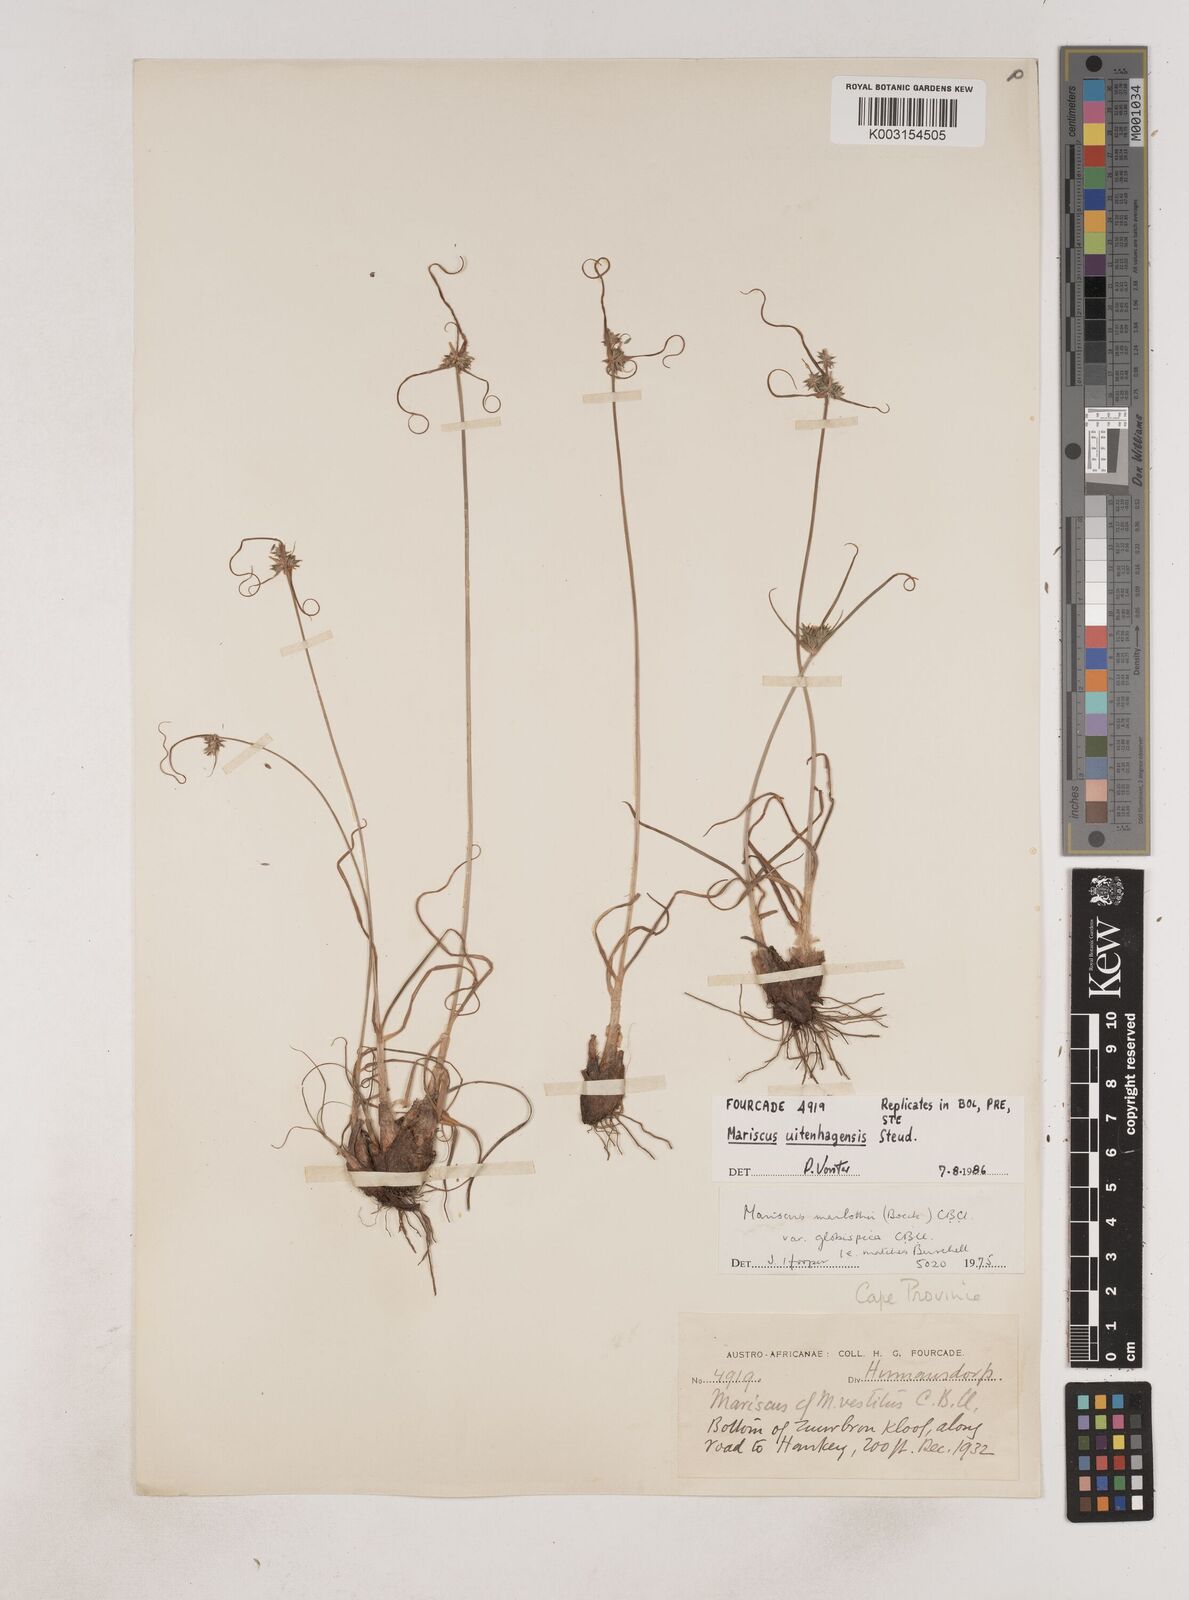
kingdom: Plantae
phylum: Tracheophyta
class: Liliopsida
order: Poales
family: Cyperaceae
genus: Cyperus
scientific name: Cyperus capensis
